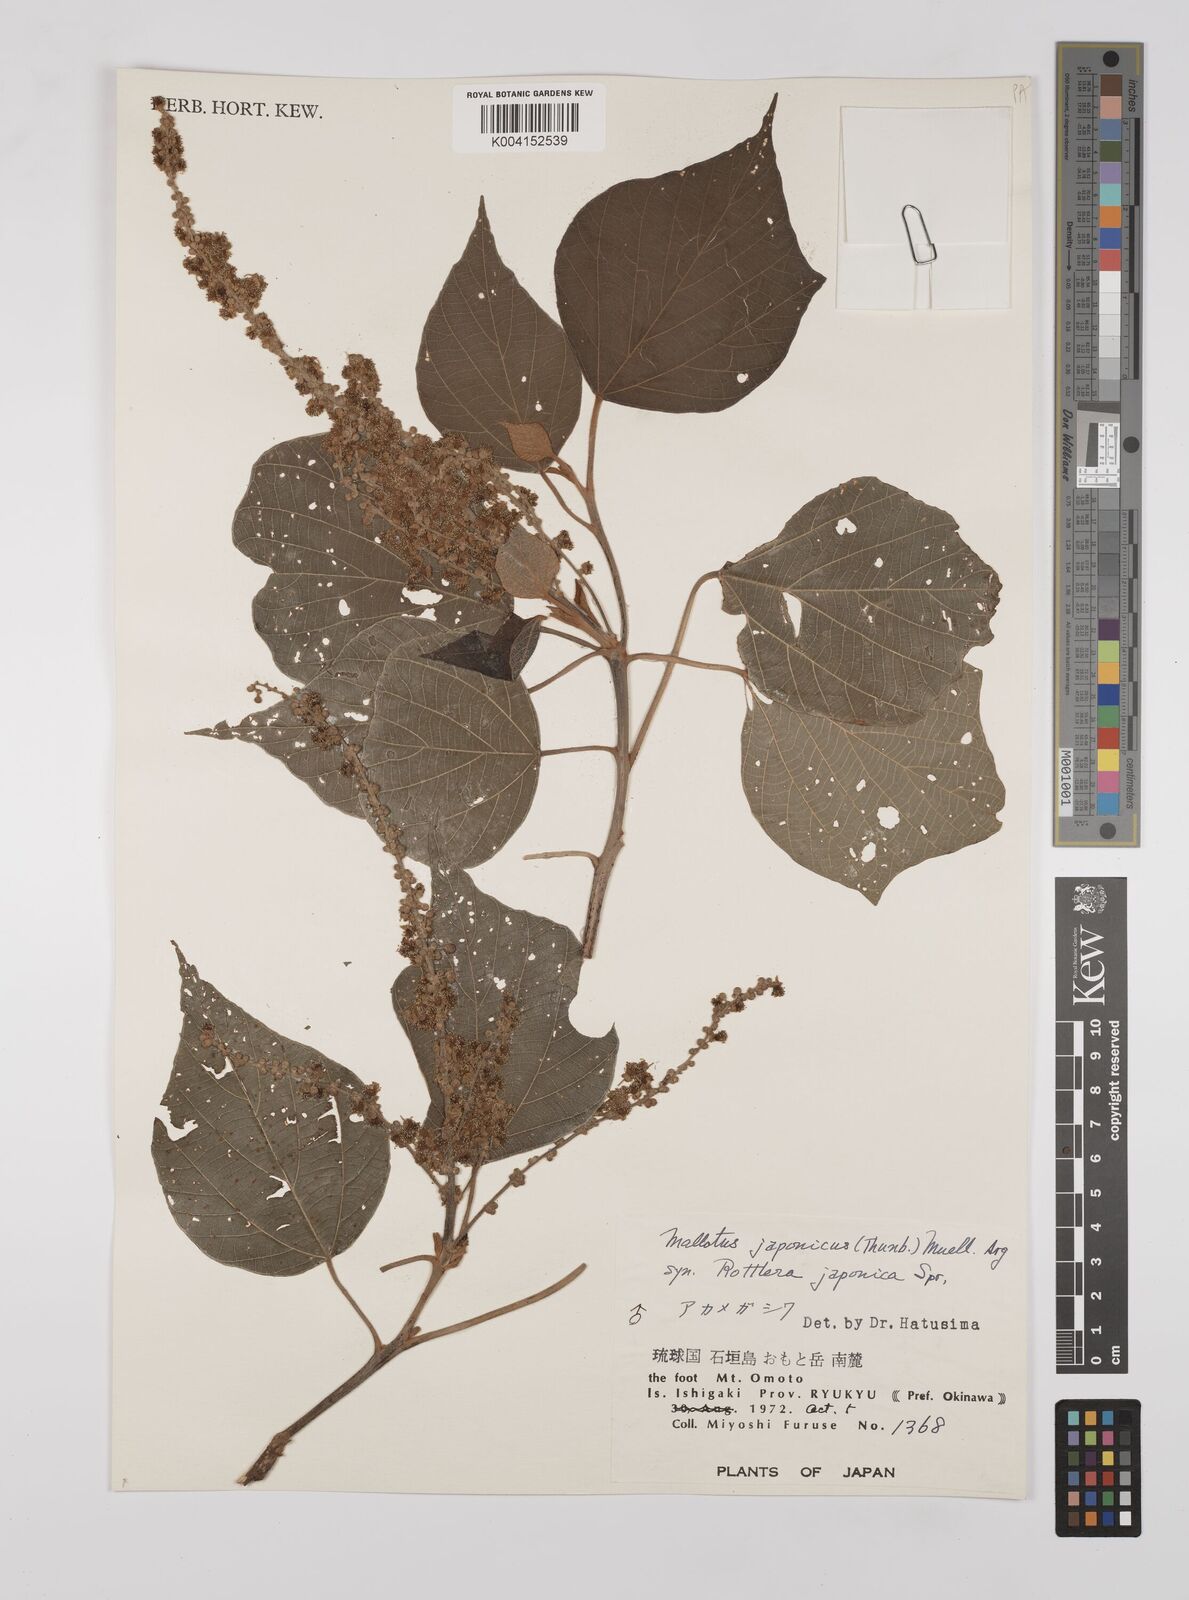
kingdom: Plantae
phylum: Tracheophyta
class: Magnoliopsida
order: Malpighiales
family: Euphorbiaceae
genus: Mallotus
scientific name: Mallotus japonicus
